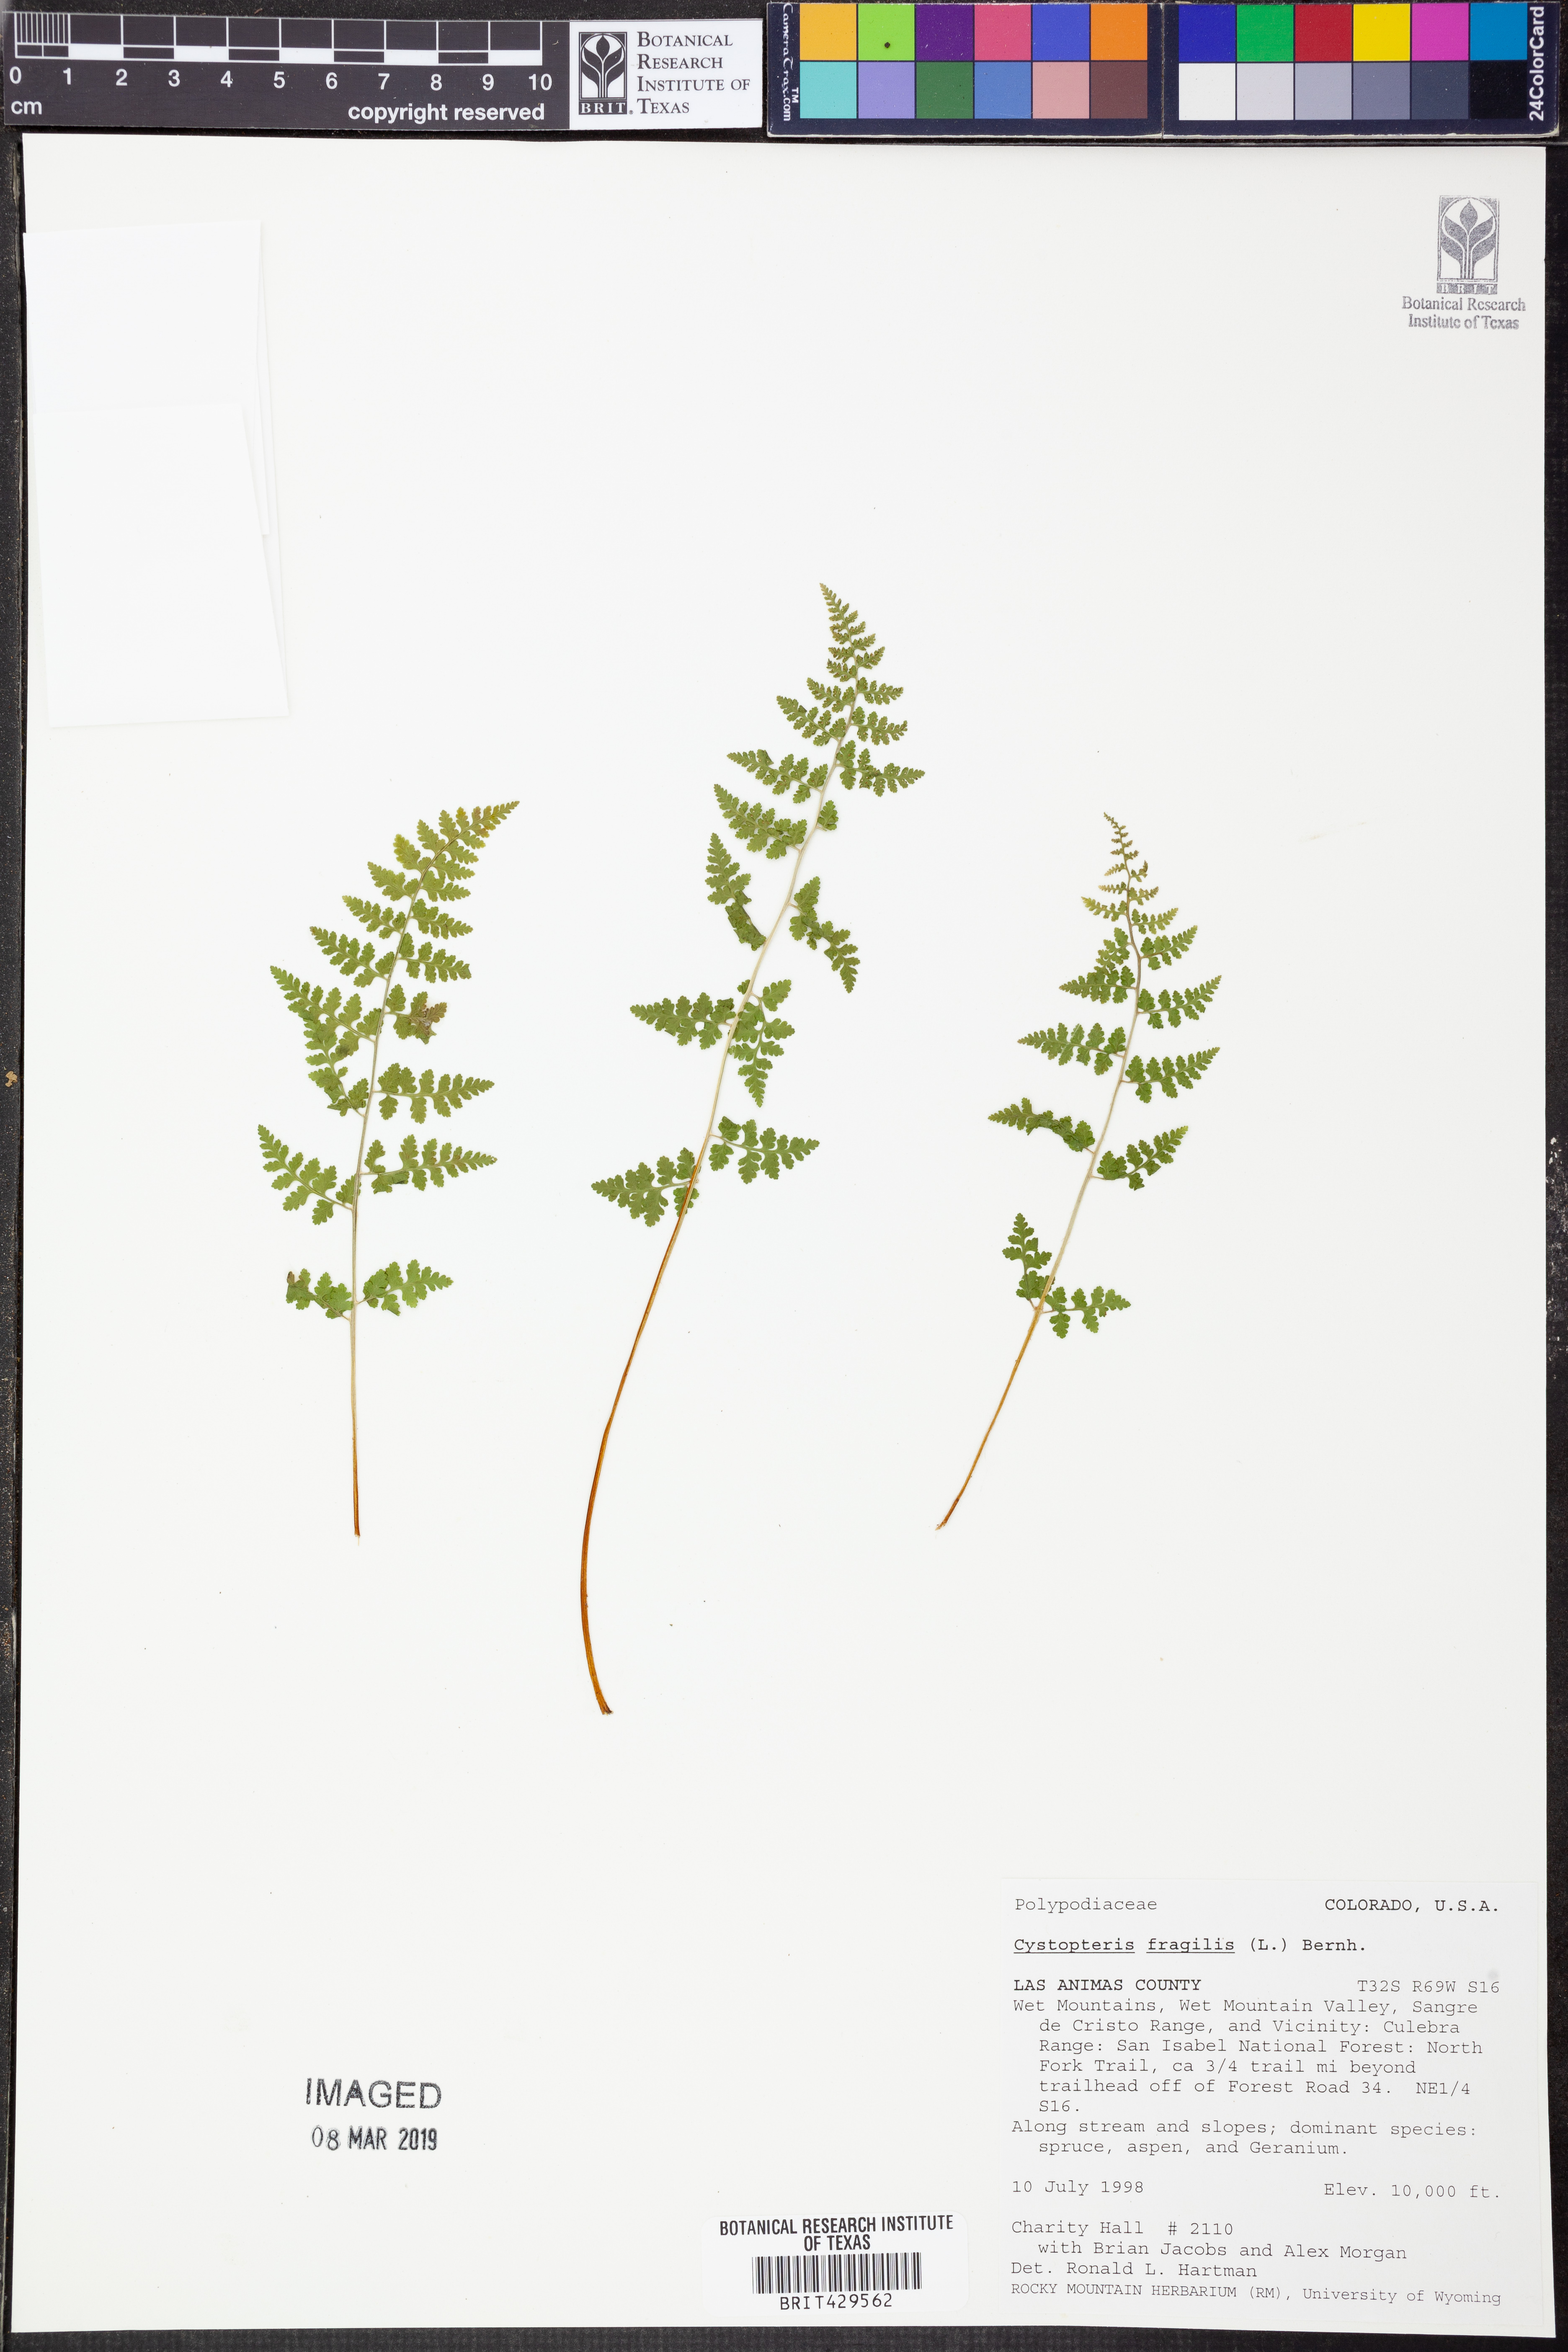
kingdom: Plantae
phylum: Tracheophyta
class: Polypodiopsida
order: Polypodiales
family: Cystopteridaceae
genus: Cystopteris
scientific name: Cystopteris fragilis
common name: Brittle bladder fern
